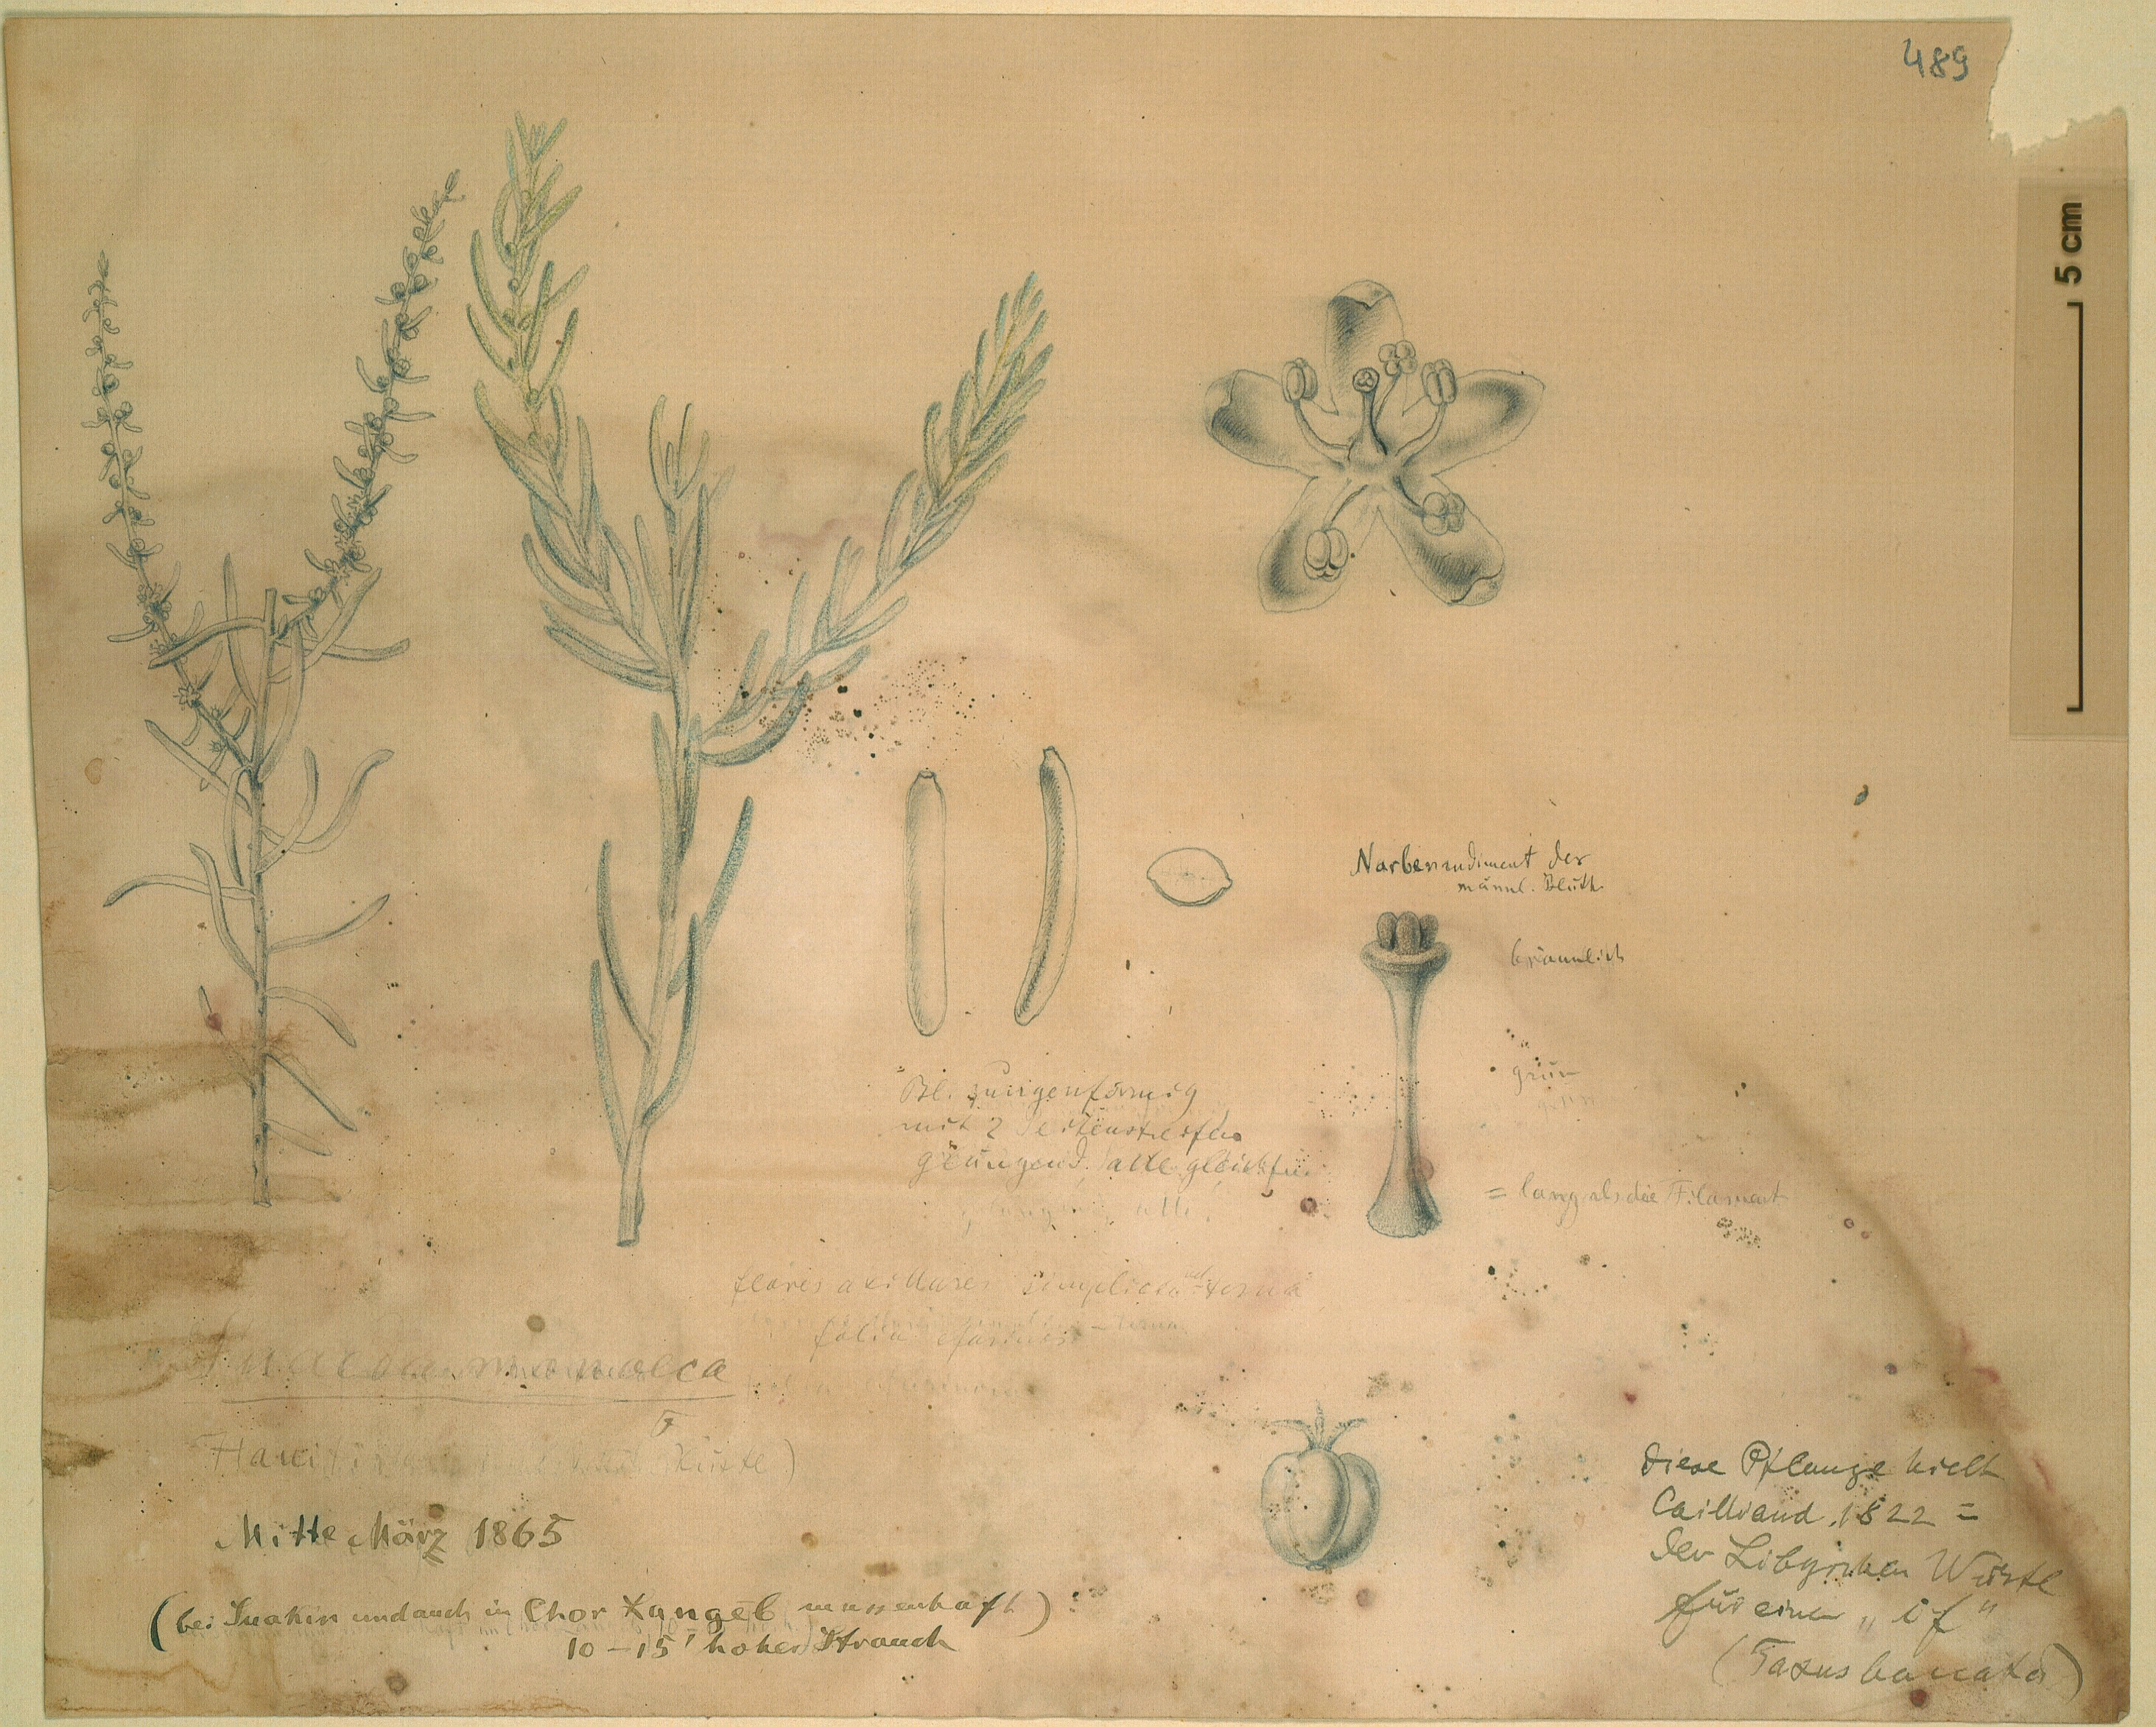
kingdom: Plantae
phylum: Tracheophyta
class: Magnoliopsida
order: Caryophyllales
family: Amaranthaceae
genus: Suaeda
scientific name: Suaeda monoica
